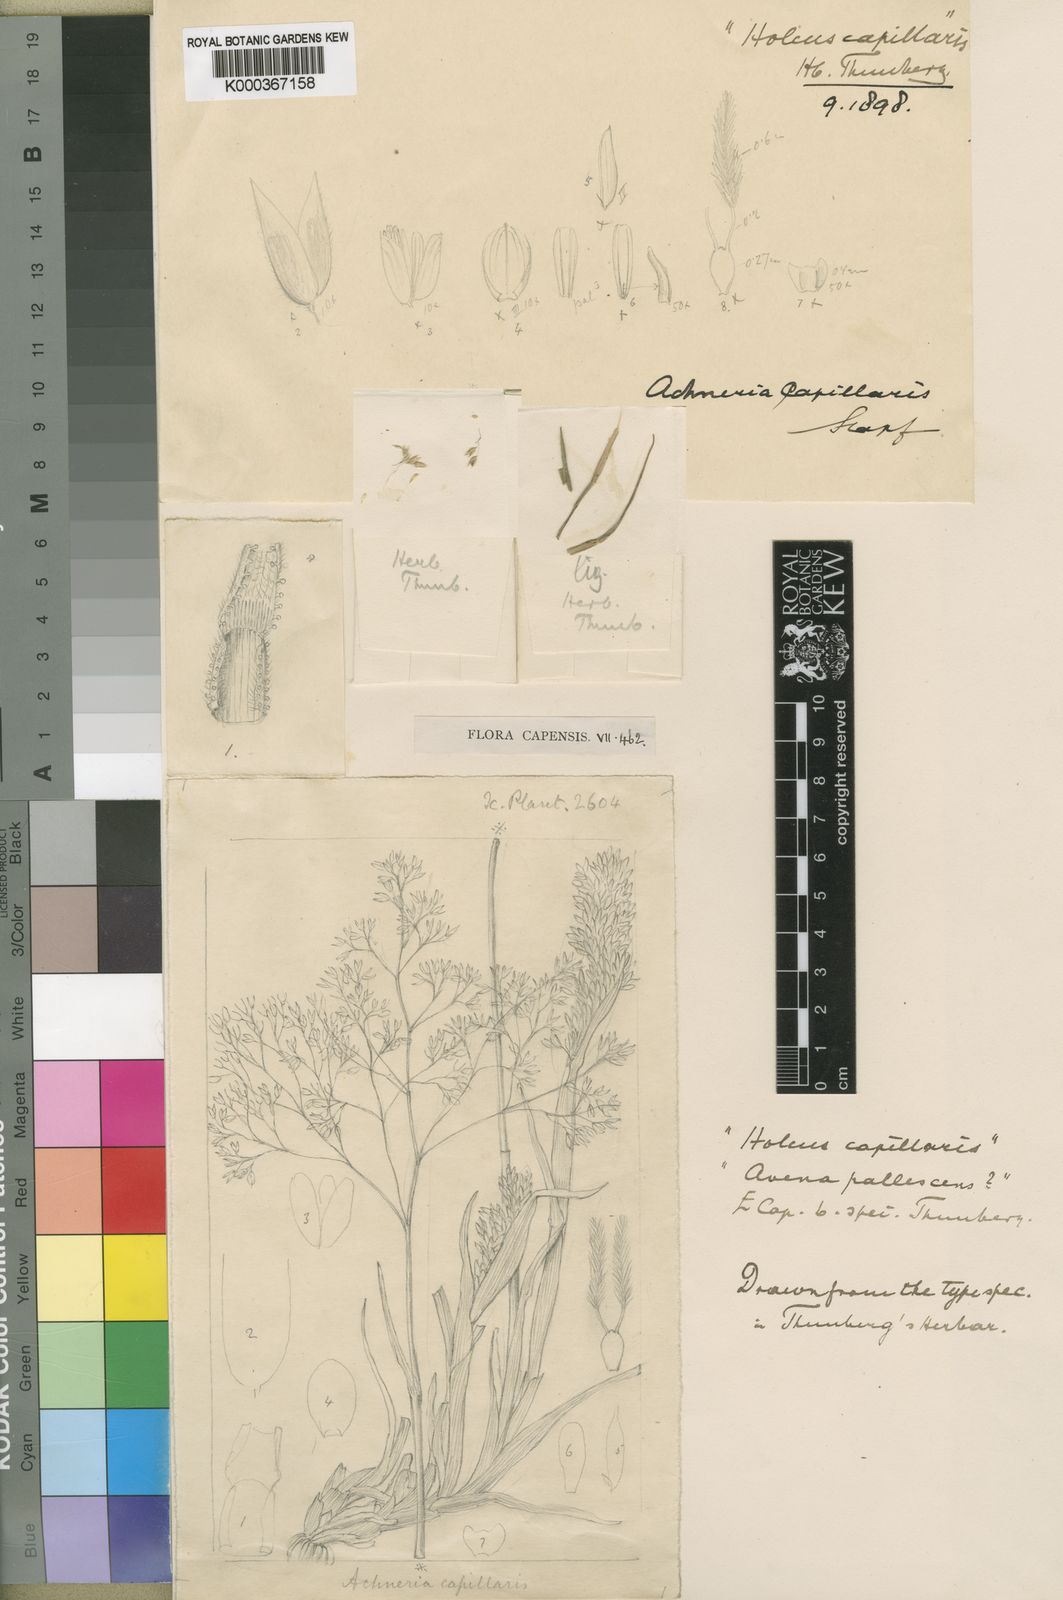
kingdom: Plantae
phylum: Tracheophyta
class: Liliopsida
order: Poales
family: Poaceae
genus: Pentameris
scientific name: Pentameris capillaris
